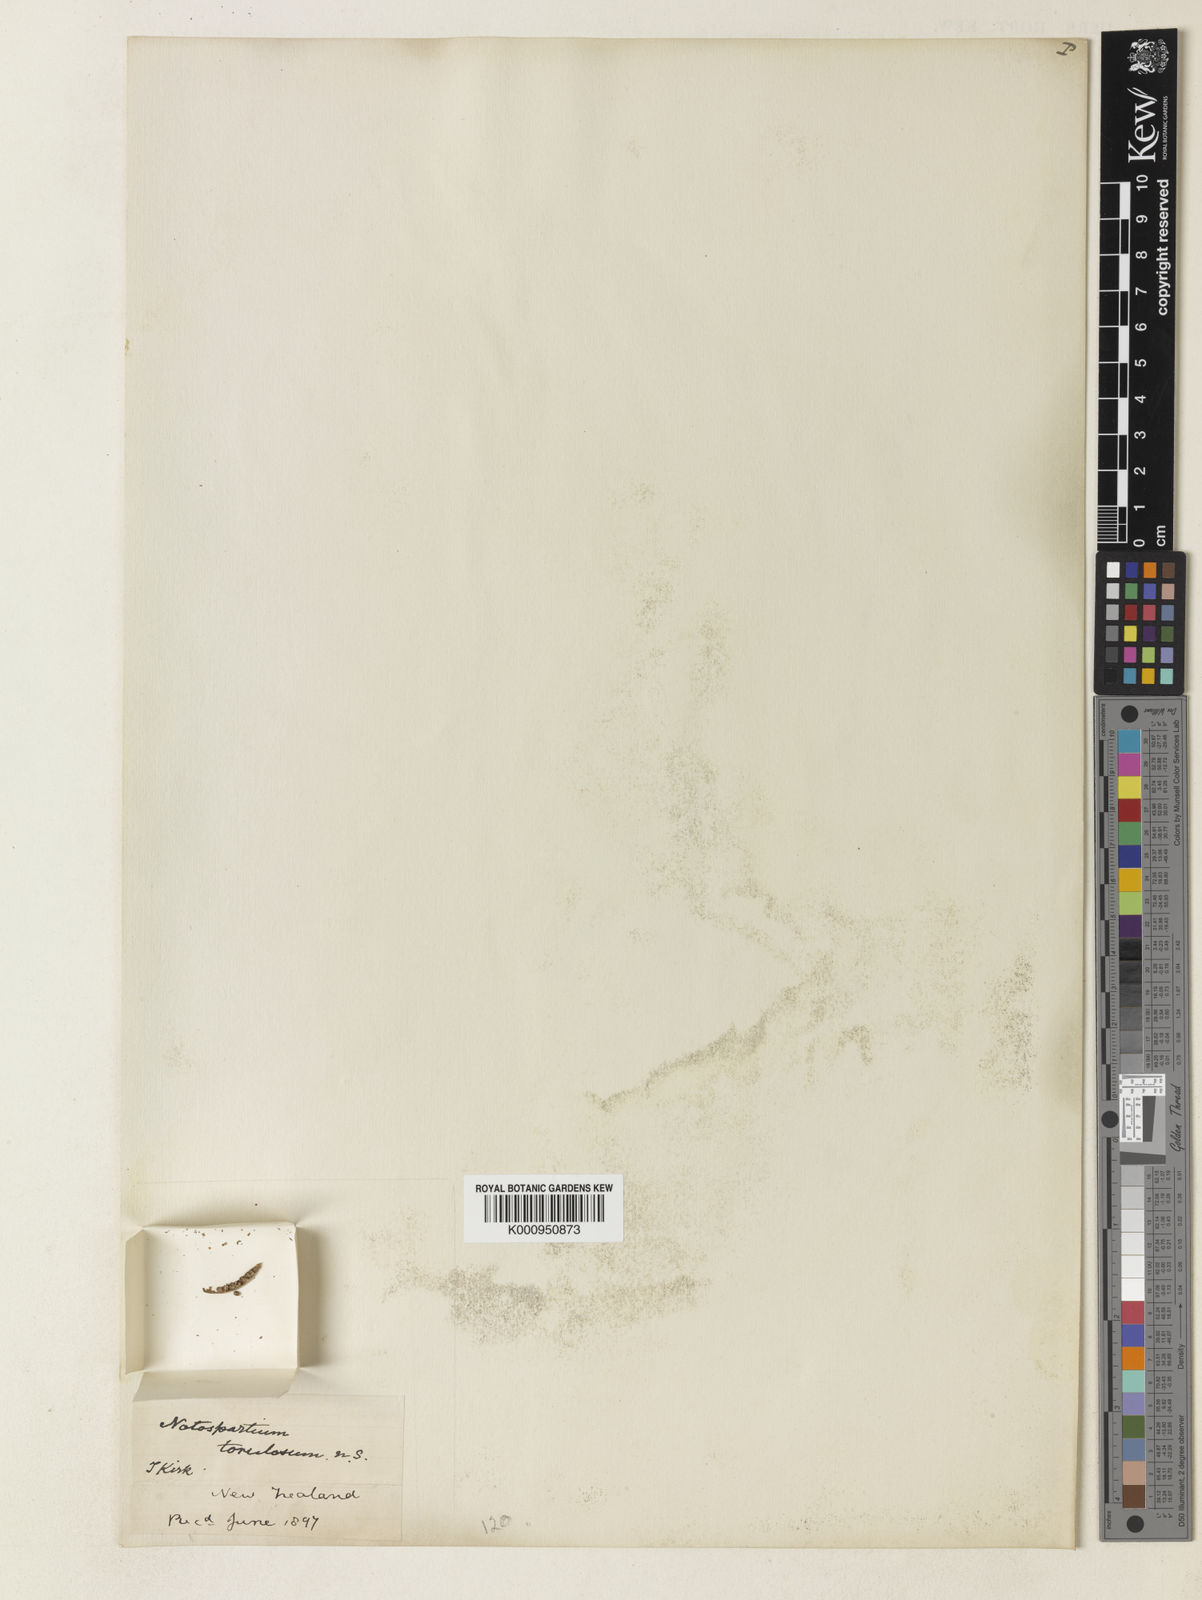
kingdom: Plantae
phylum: Tracheophyta
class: Magnoliopsida
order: Fabales
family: Fabaceae
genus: Carmichaelia
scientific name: Carmichaelia torulosa
